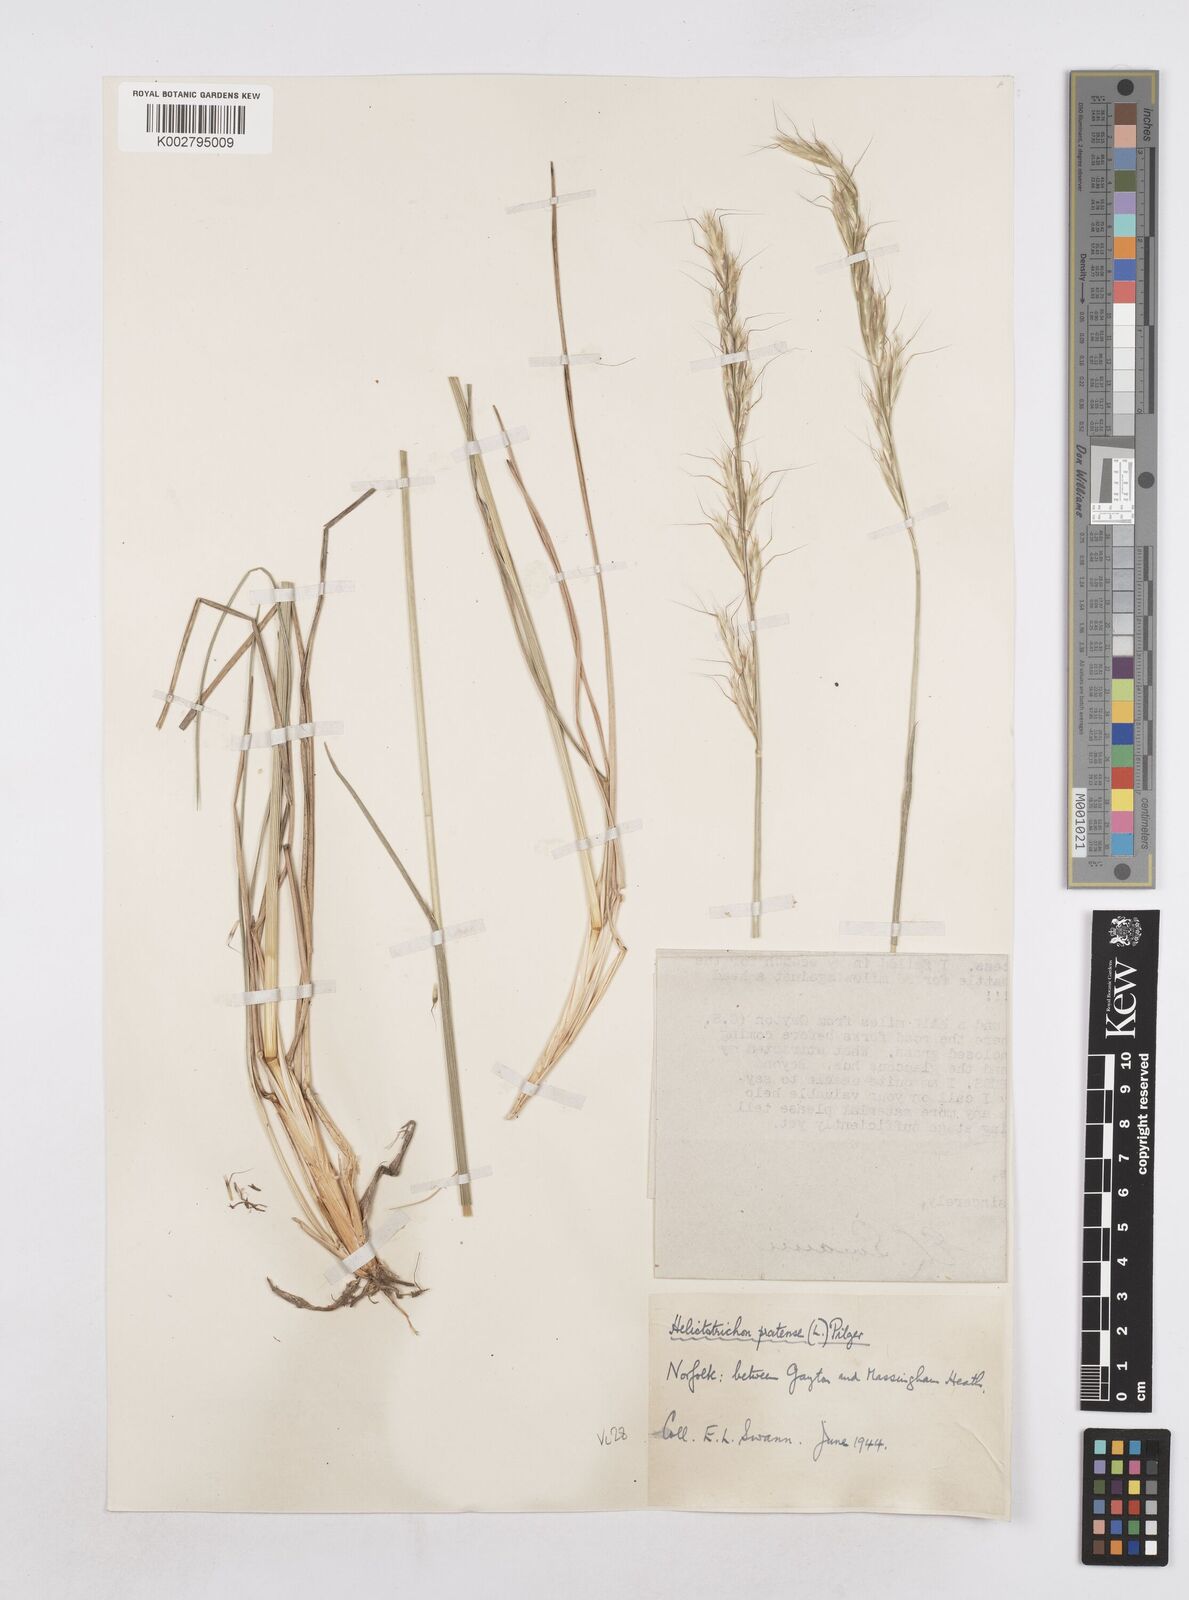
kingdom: Plantae
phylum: Tracheophyta
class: Liliopsida
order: Poales
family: Poaceae
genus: Helictochloa
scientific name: Helictochloa pratensis
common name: Meadow oat grass
